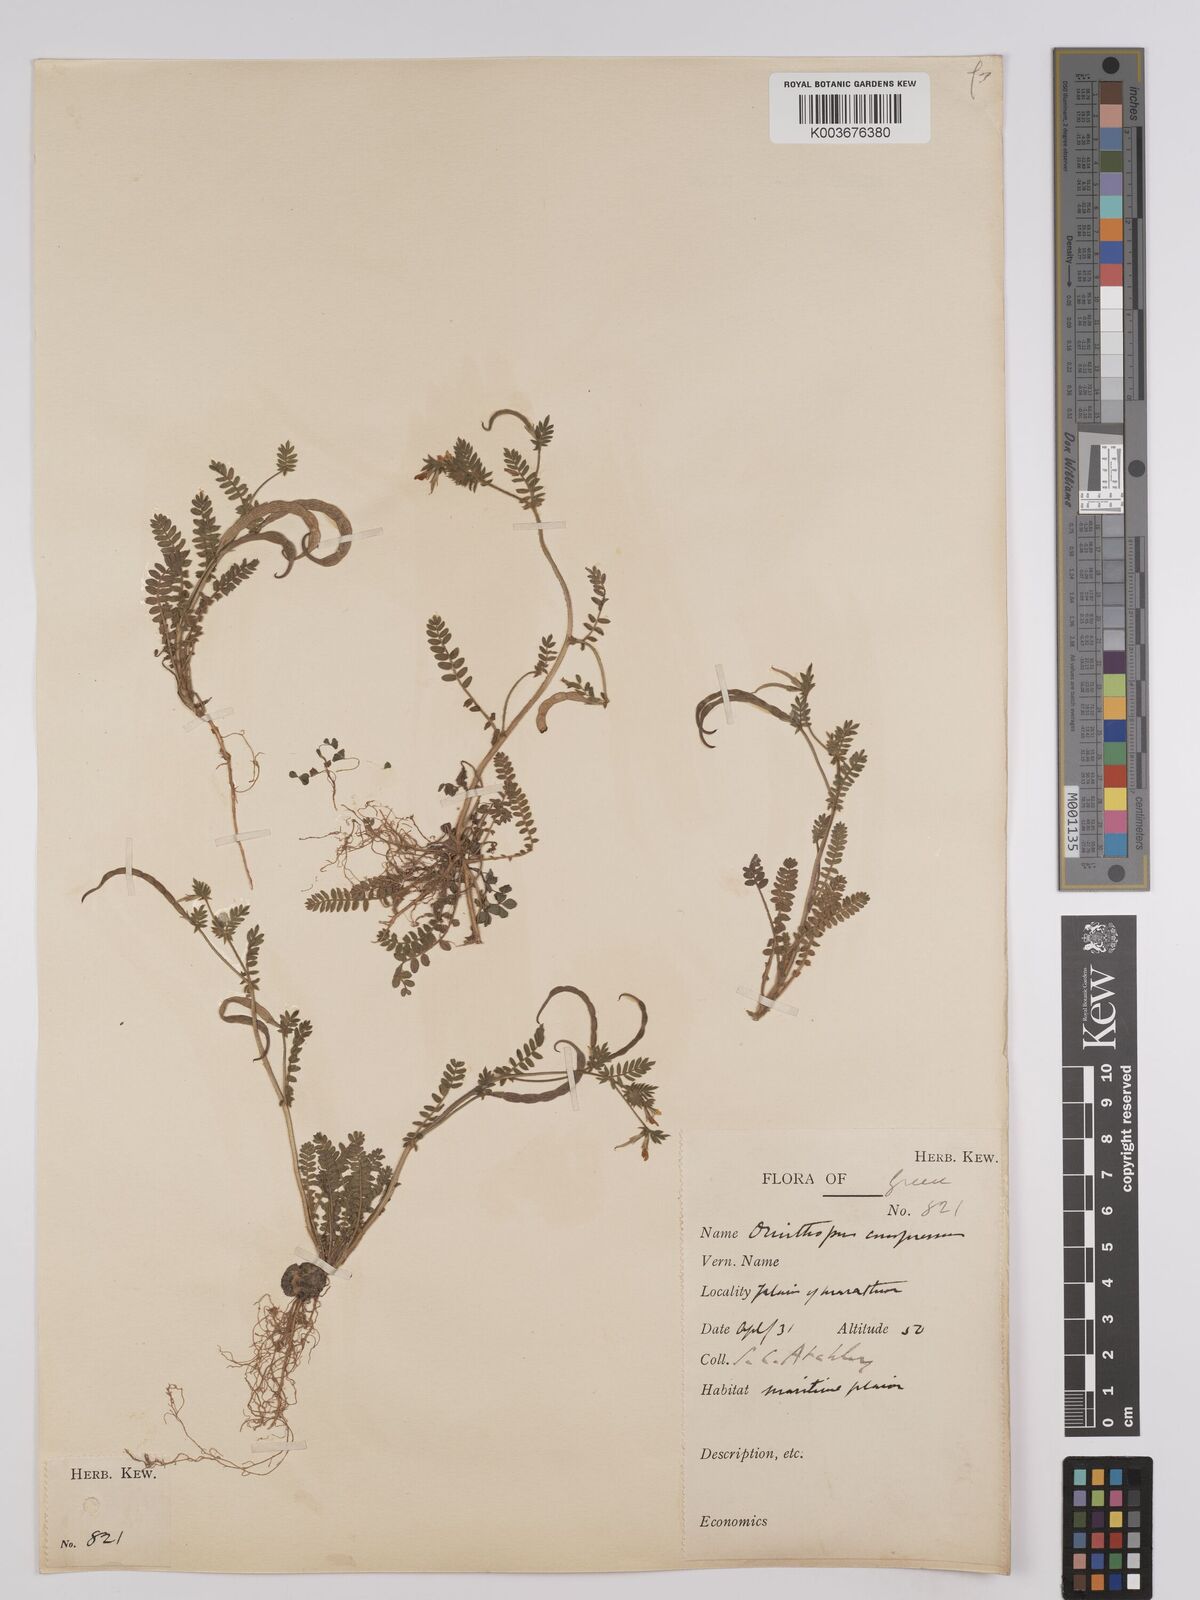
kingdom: Plantae
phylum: Tracheophyta
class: Magnoliopsida
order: Fabales
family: Fabaceae
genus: Ornithopus
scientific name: Ornithopus compressus
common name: Yellow serradella
